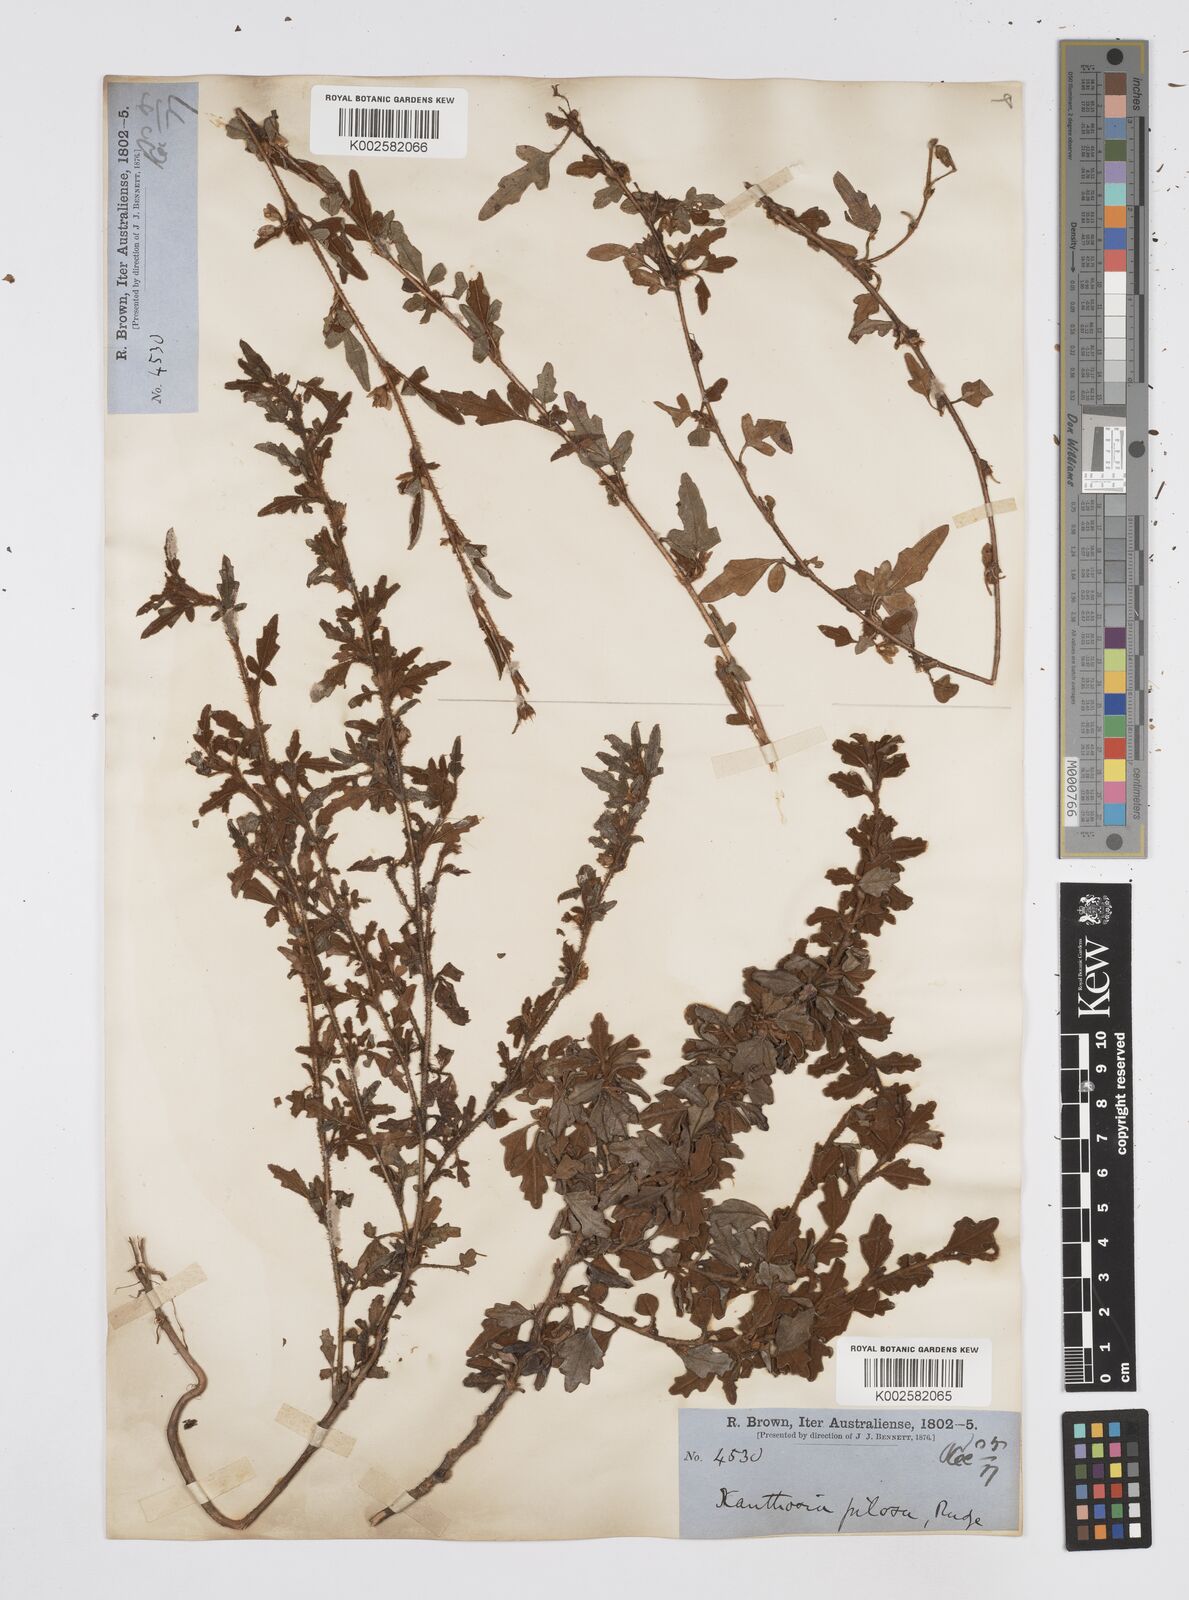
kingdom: Plantae
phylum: Tracheophyta
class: Magnoliopsida
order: Apiales
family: Apiaceae
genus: Xanthosia
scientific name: Xanthosia pilosa
